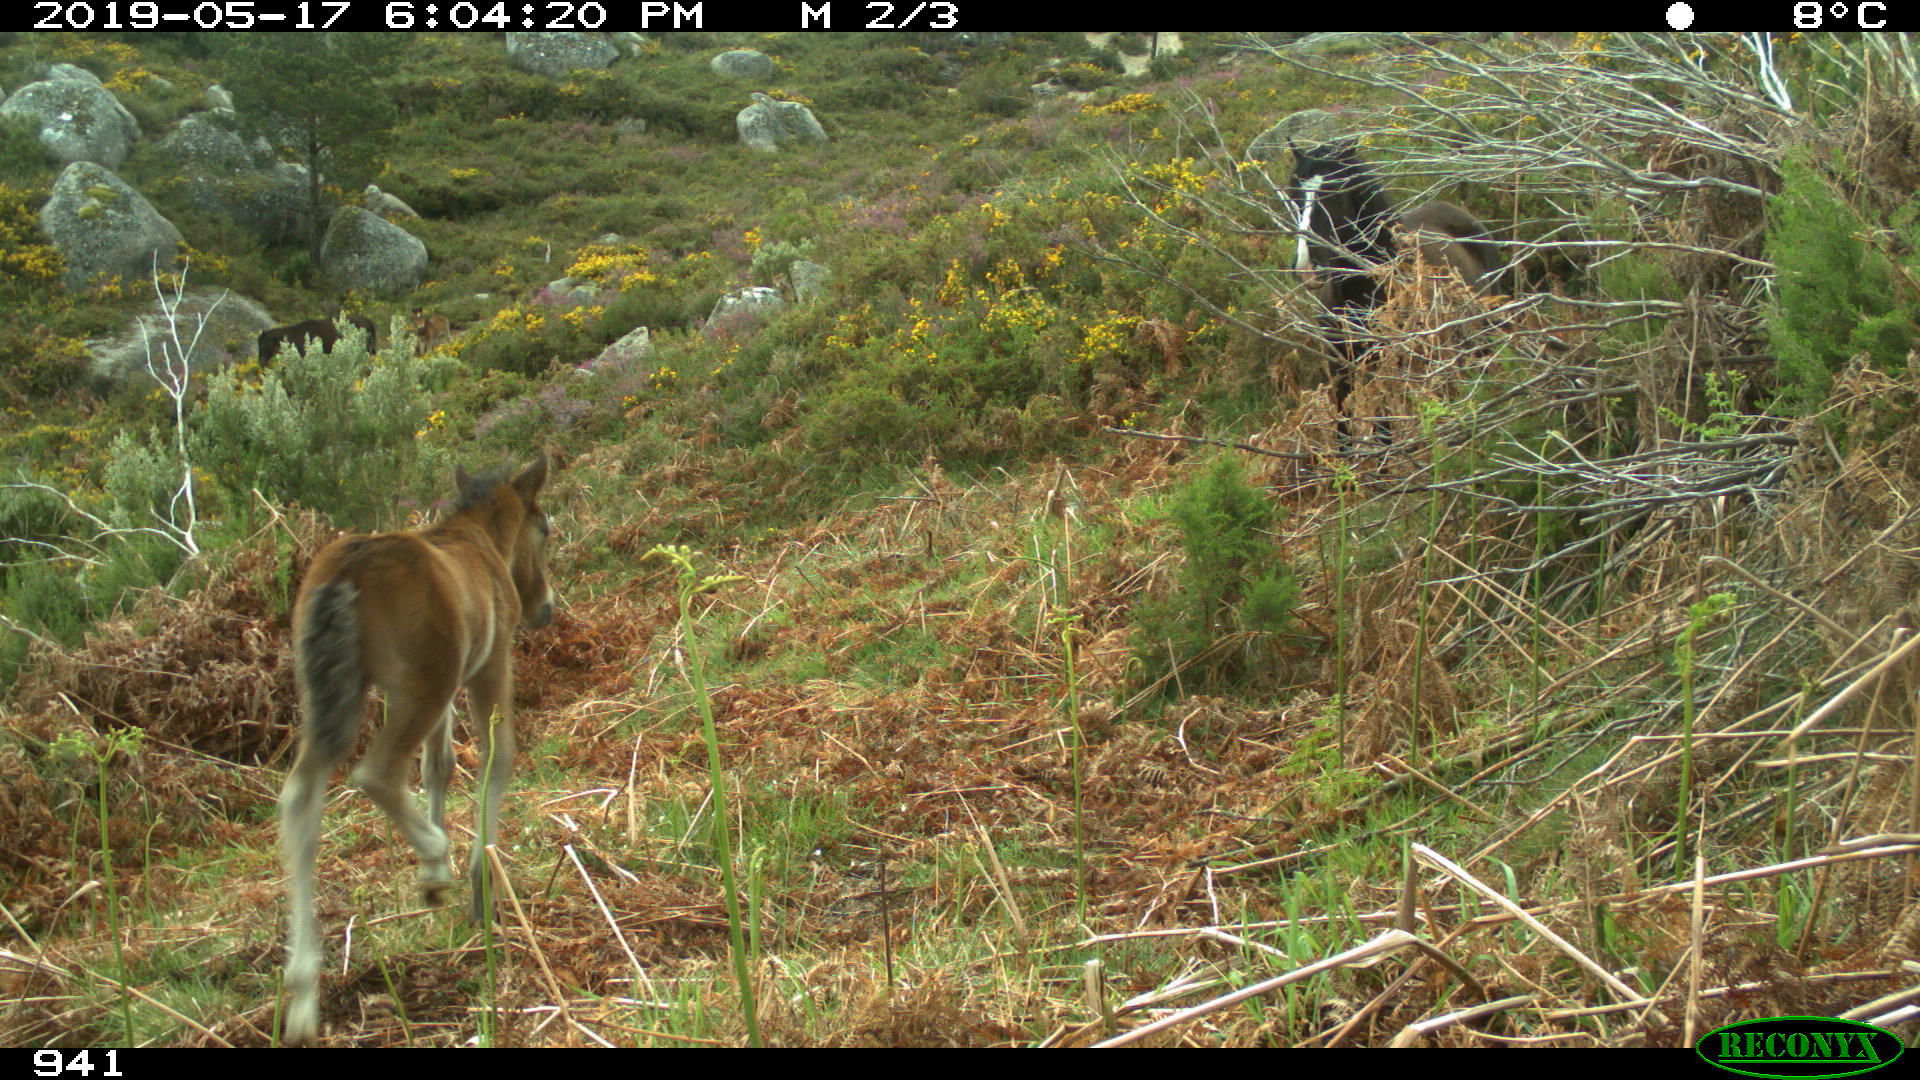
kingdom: Animalia
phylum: Chordata
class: Mammalia
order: Perissodactyla
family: Equidae
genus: Equus
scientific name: Equus caballus
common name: Horse
